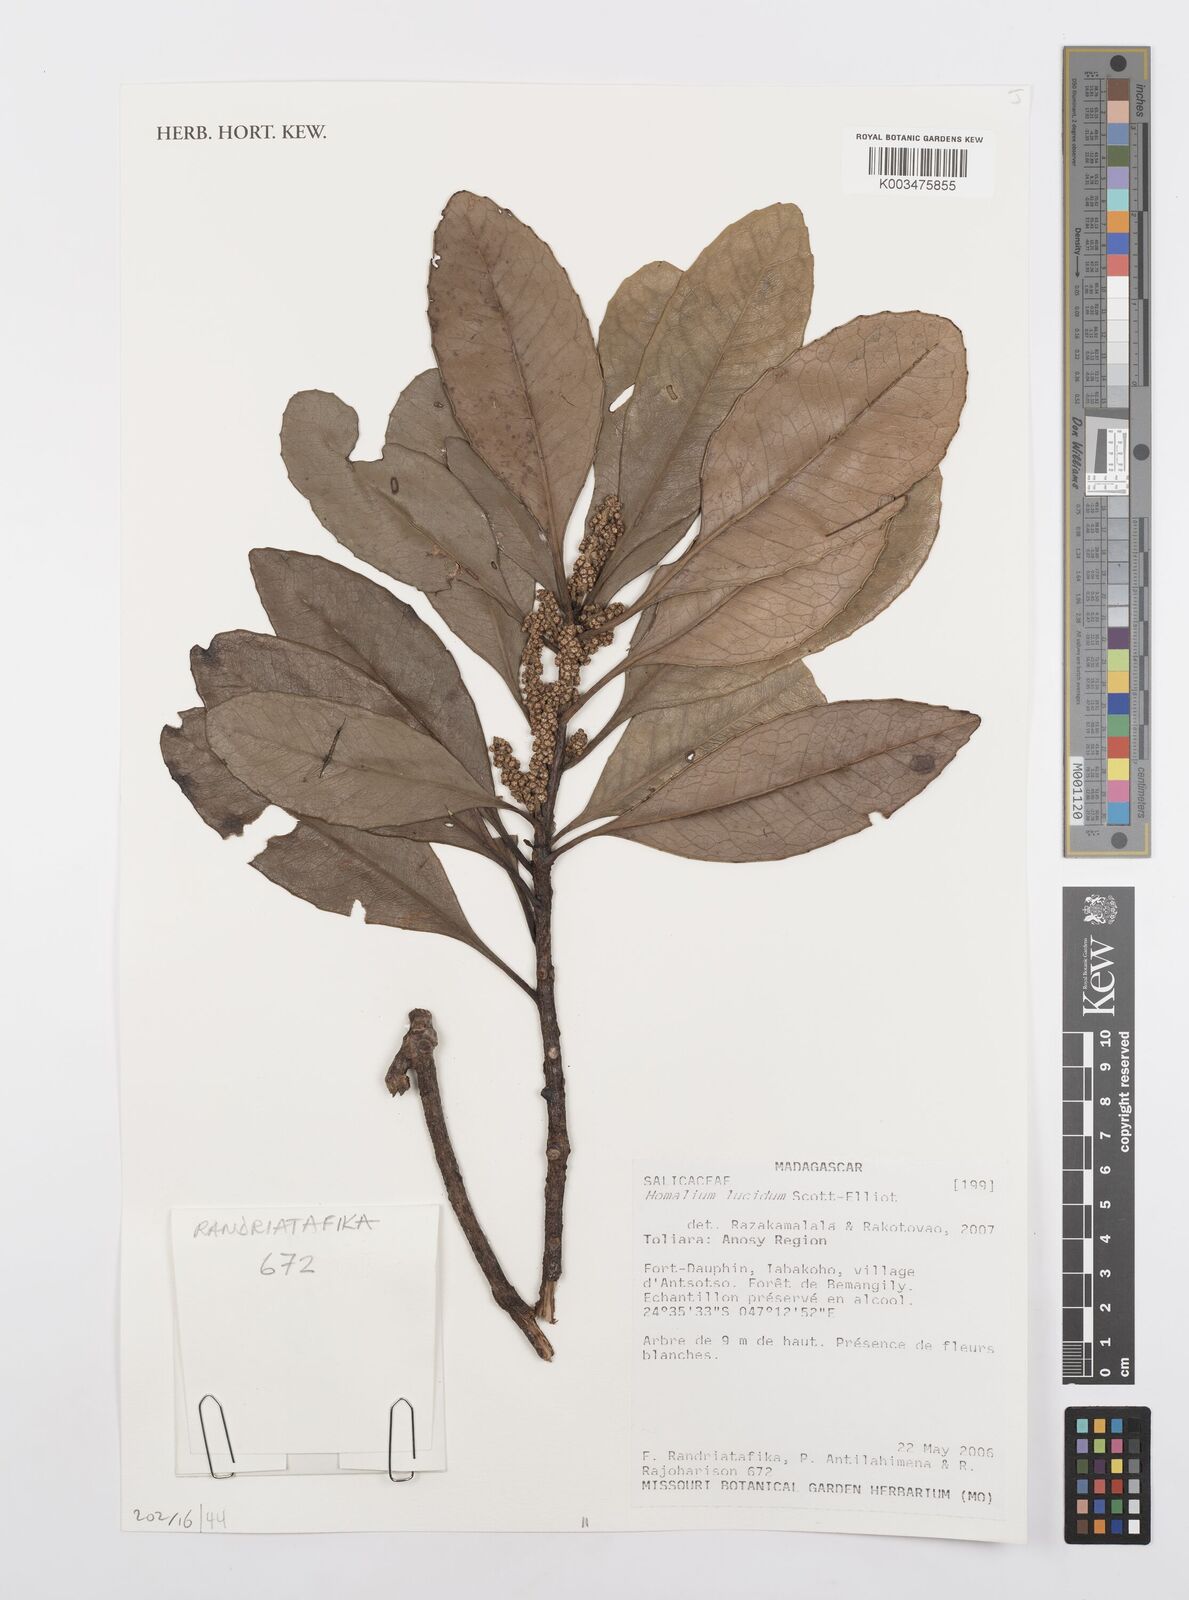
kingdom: Plantae
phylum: Tracheophyta
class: Magnoliopsida
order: Malpighiales
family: Salicaceae
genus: Homalium
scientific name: Homalium lucidum
